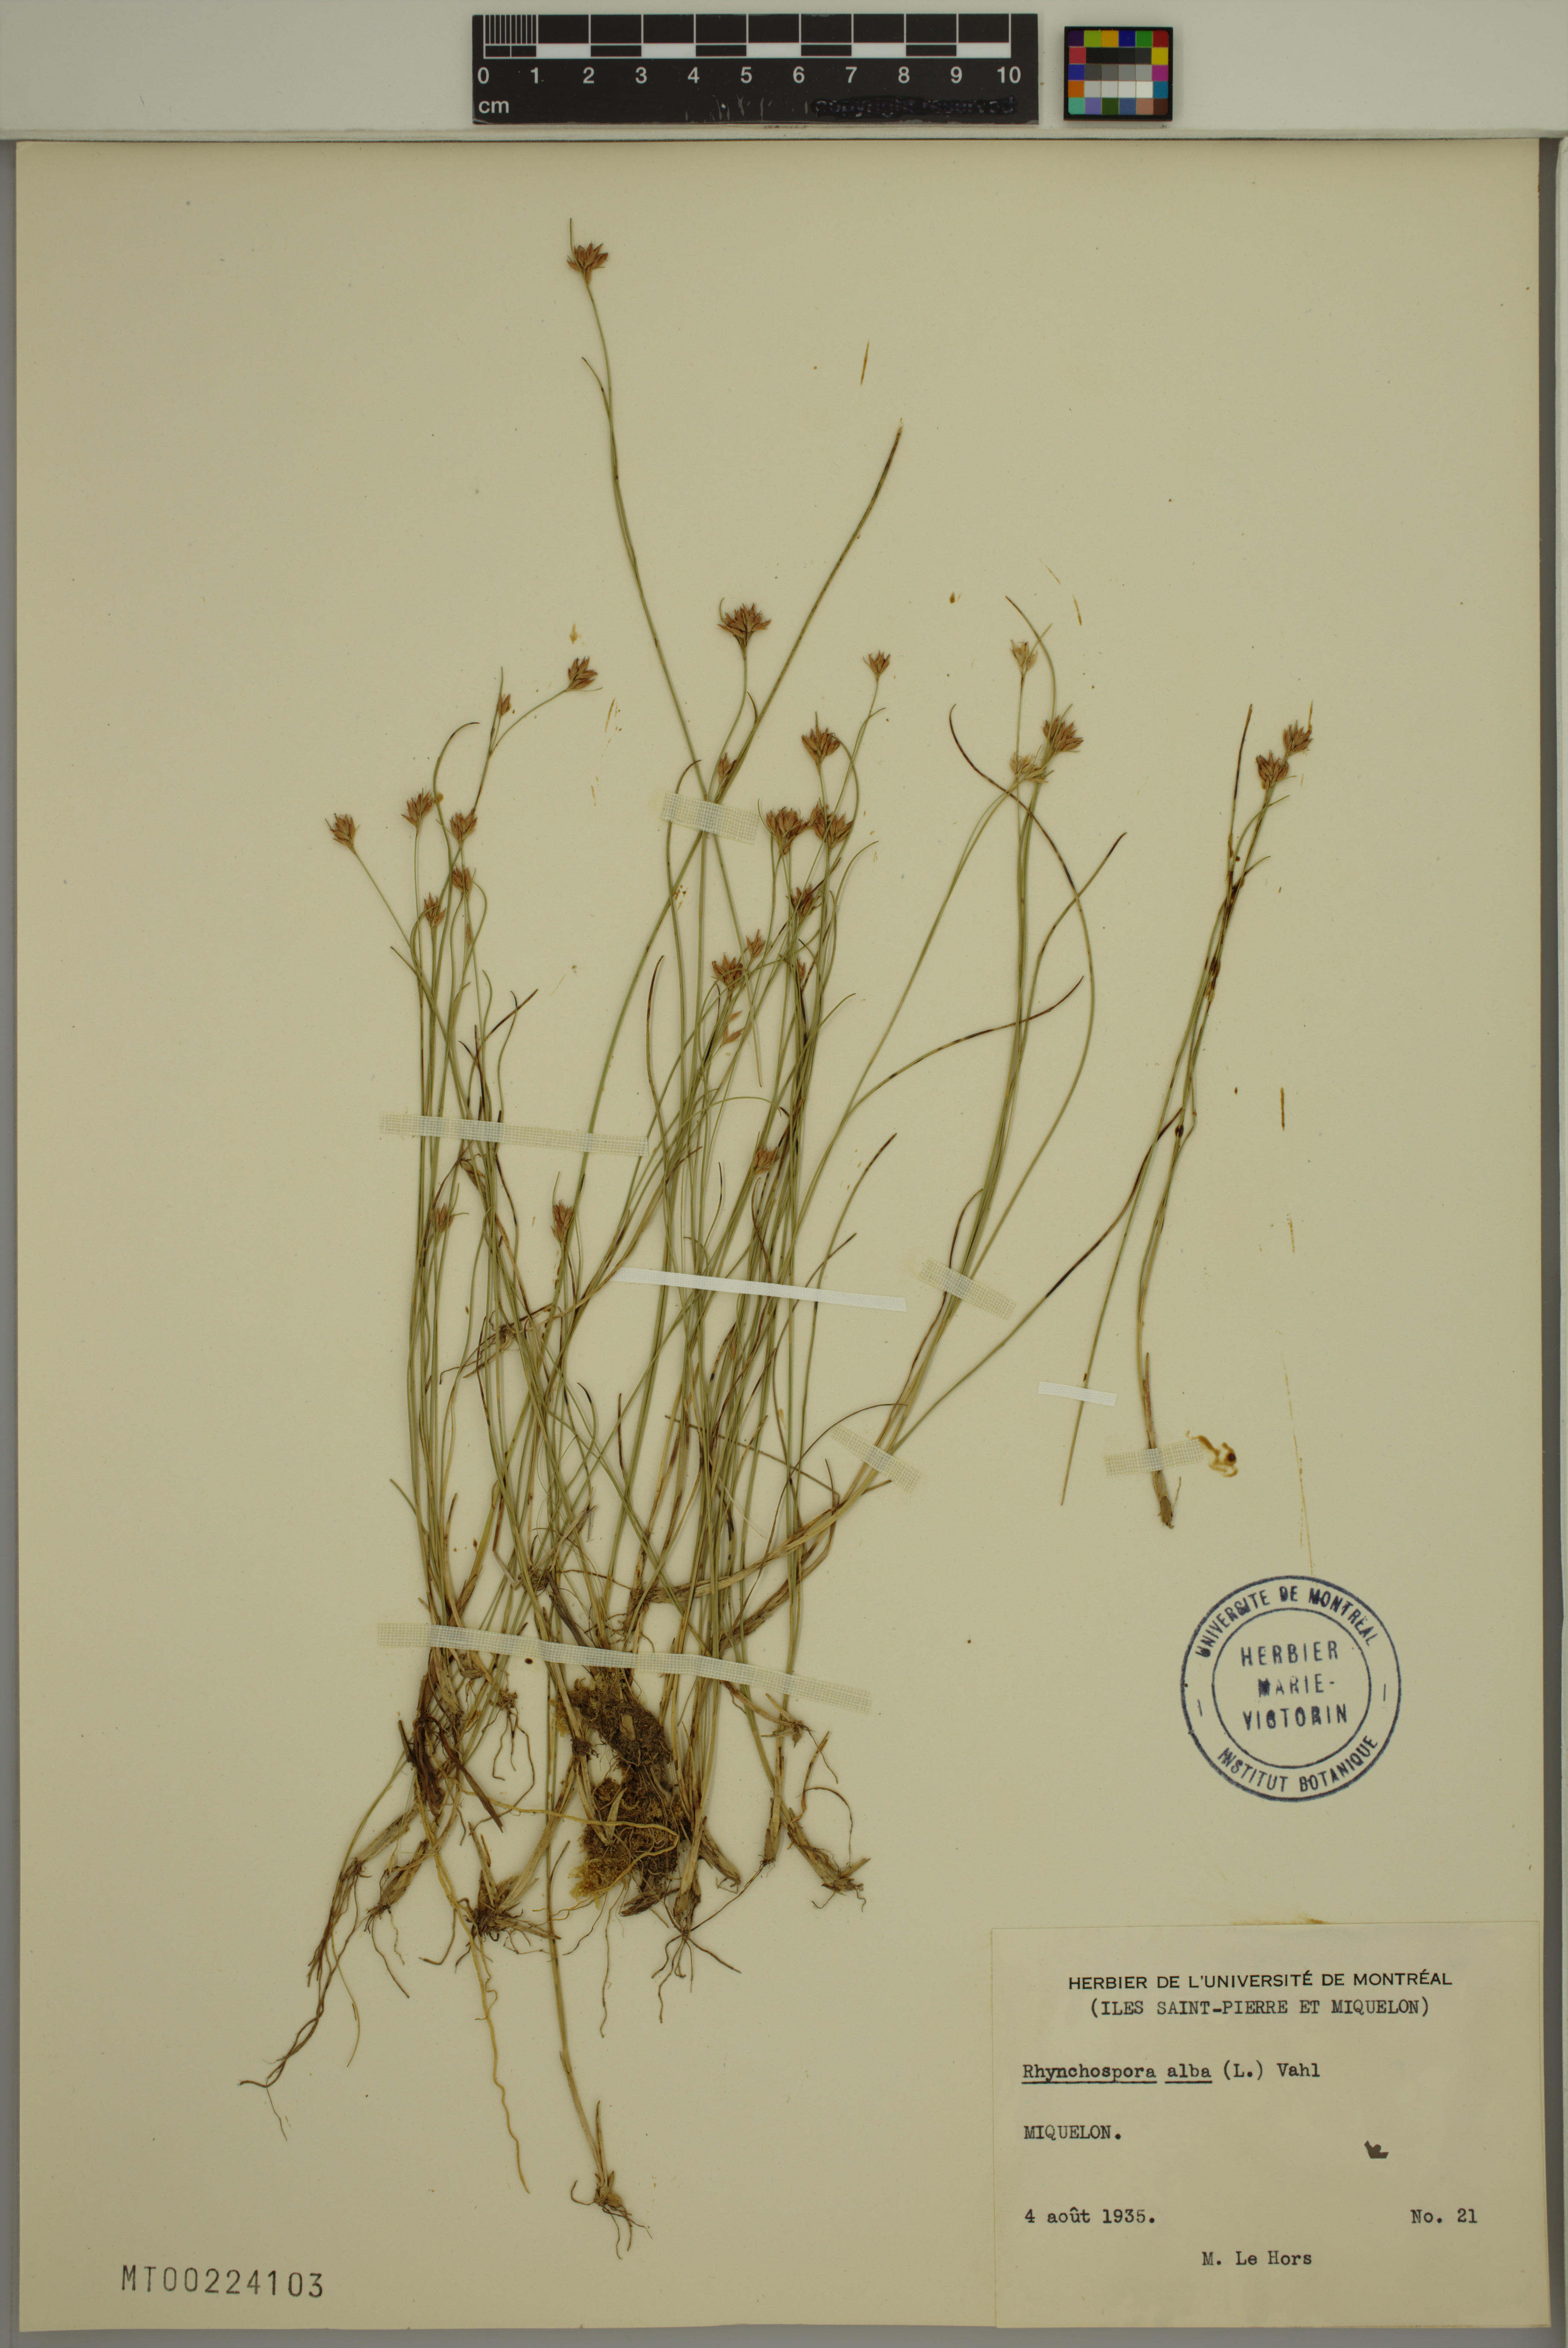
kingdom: Plantae
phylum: Tracheophyta
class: Liliopsida
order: Poales
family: Cyperaceae
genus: Rhynchospora
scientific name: Rhynchospora alba
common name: White beak-sedge
